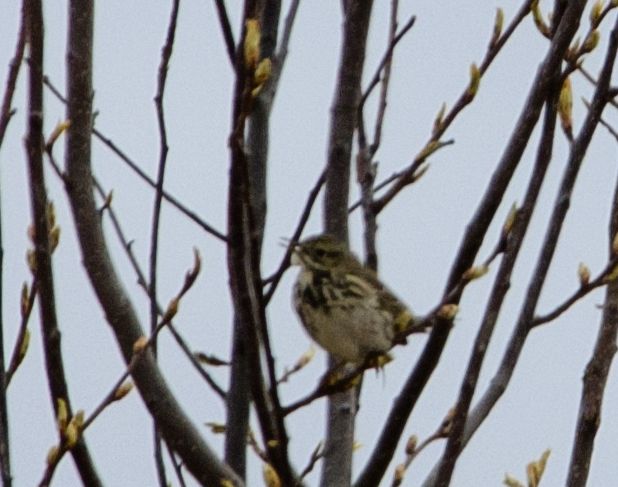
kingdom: Animalia
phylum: Chordata
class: Aves
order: Passeriformes
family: Motacillidae
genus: Anthus
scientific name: Anthus pratensis
